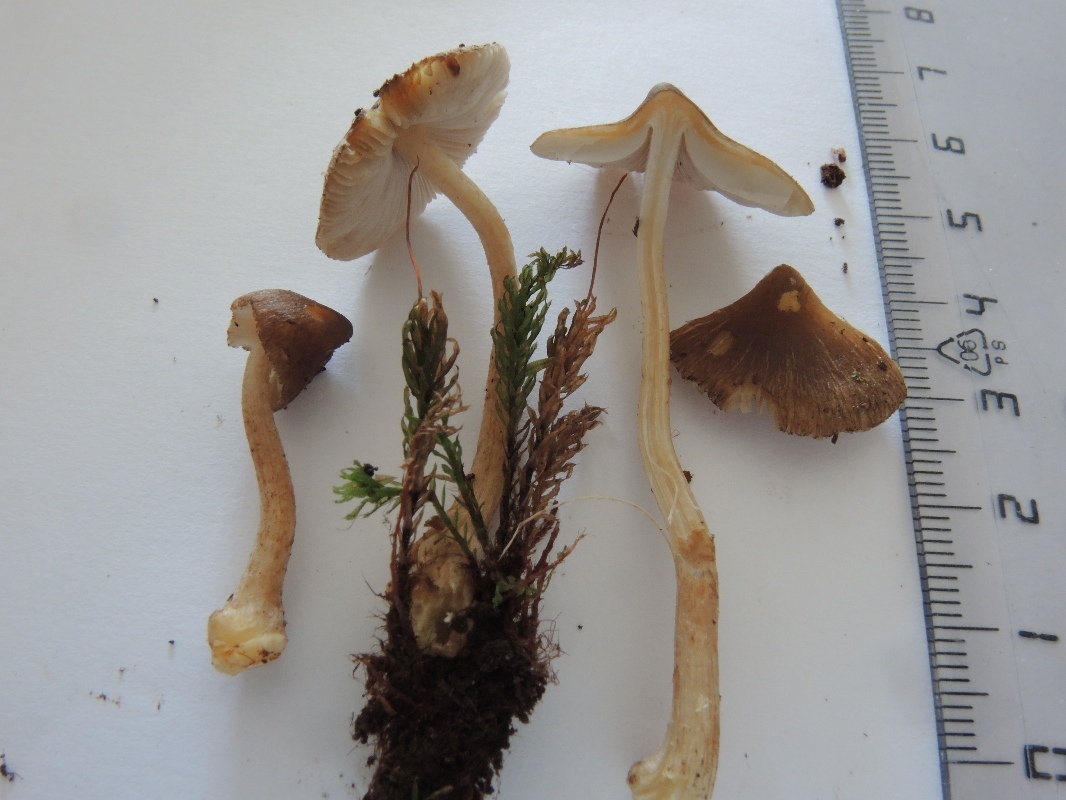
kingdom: Fungi
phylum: Basidiomycota
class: Agaricomycetes
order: Agaricales
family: Inocybaceae
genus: Inocybe
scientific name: Inocybe napipes
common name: roeknoldet trævlhat
